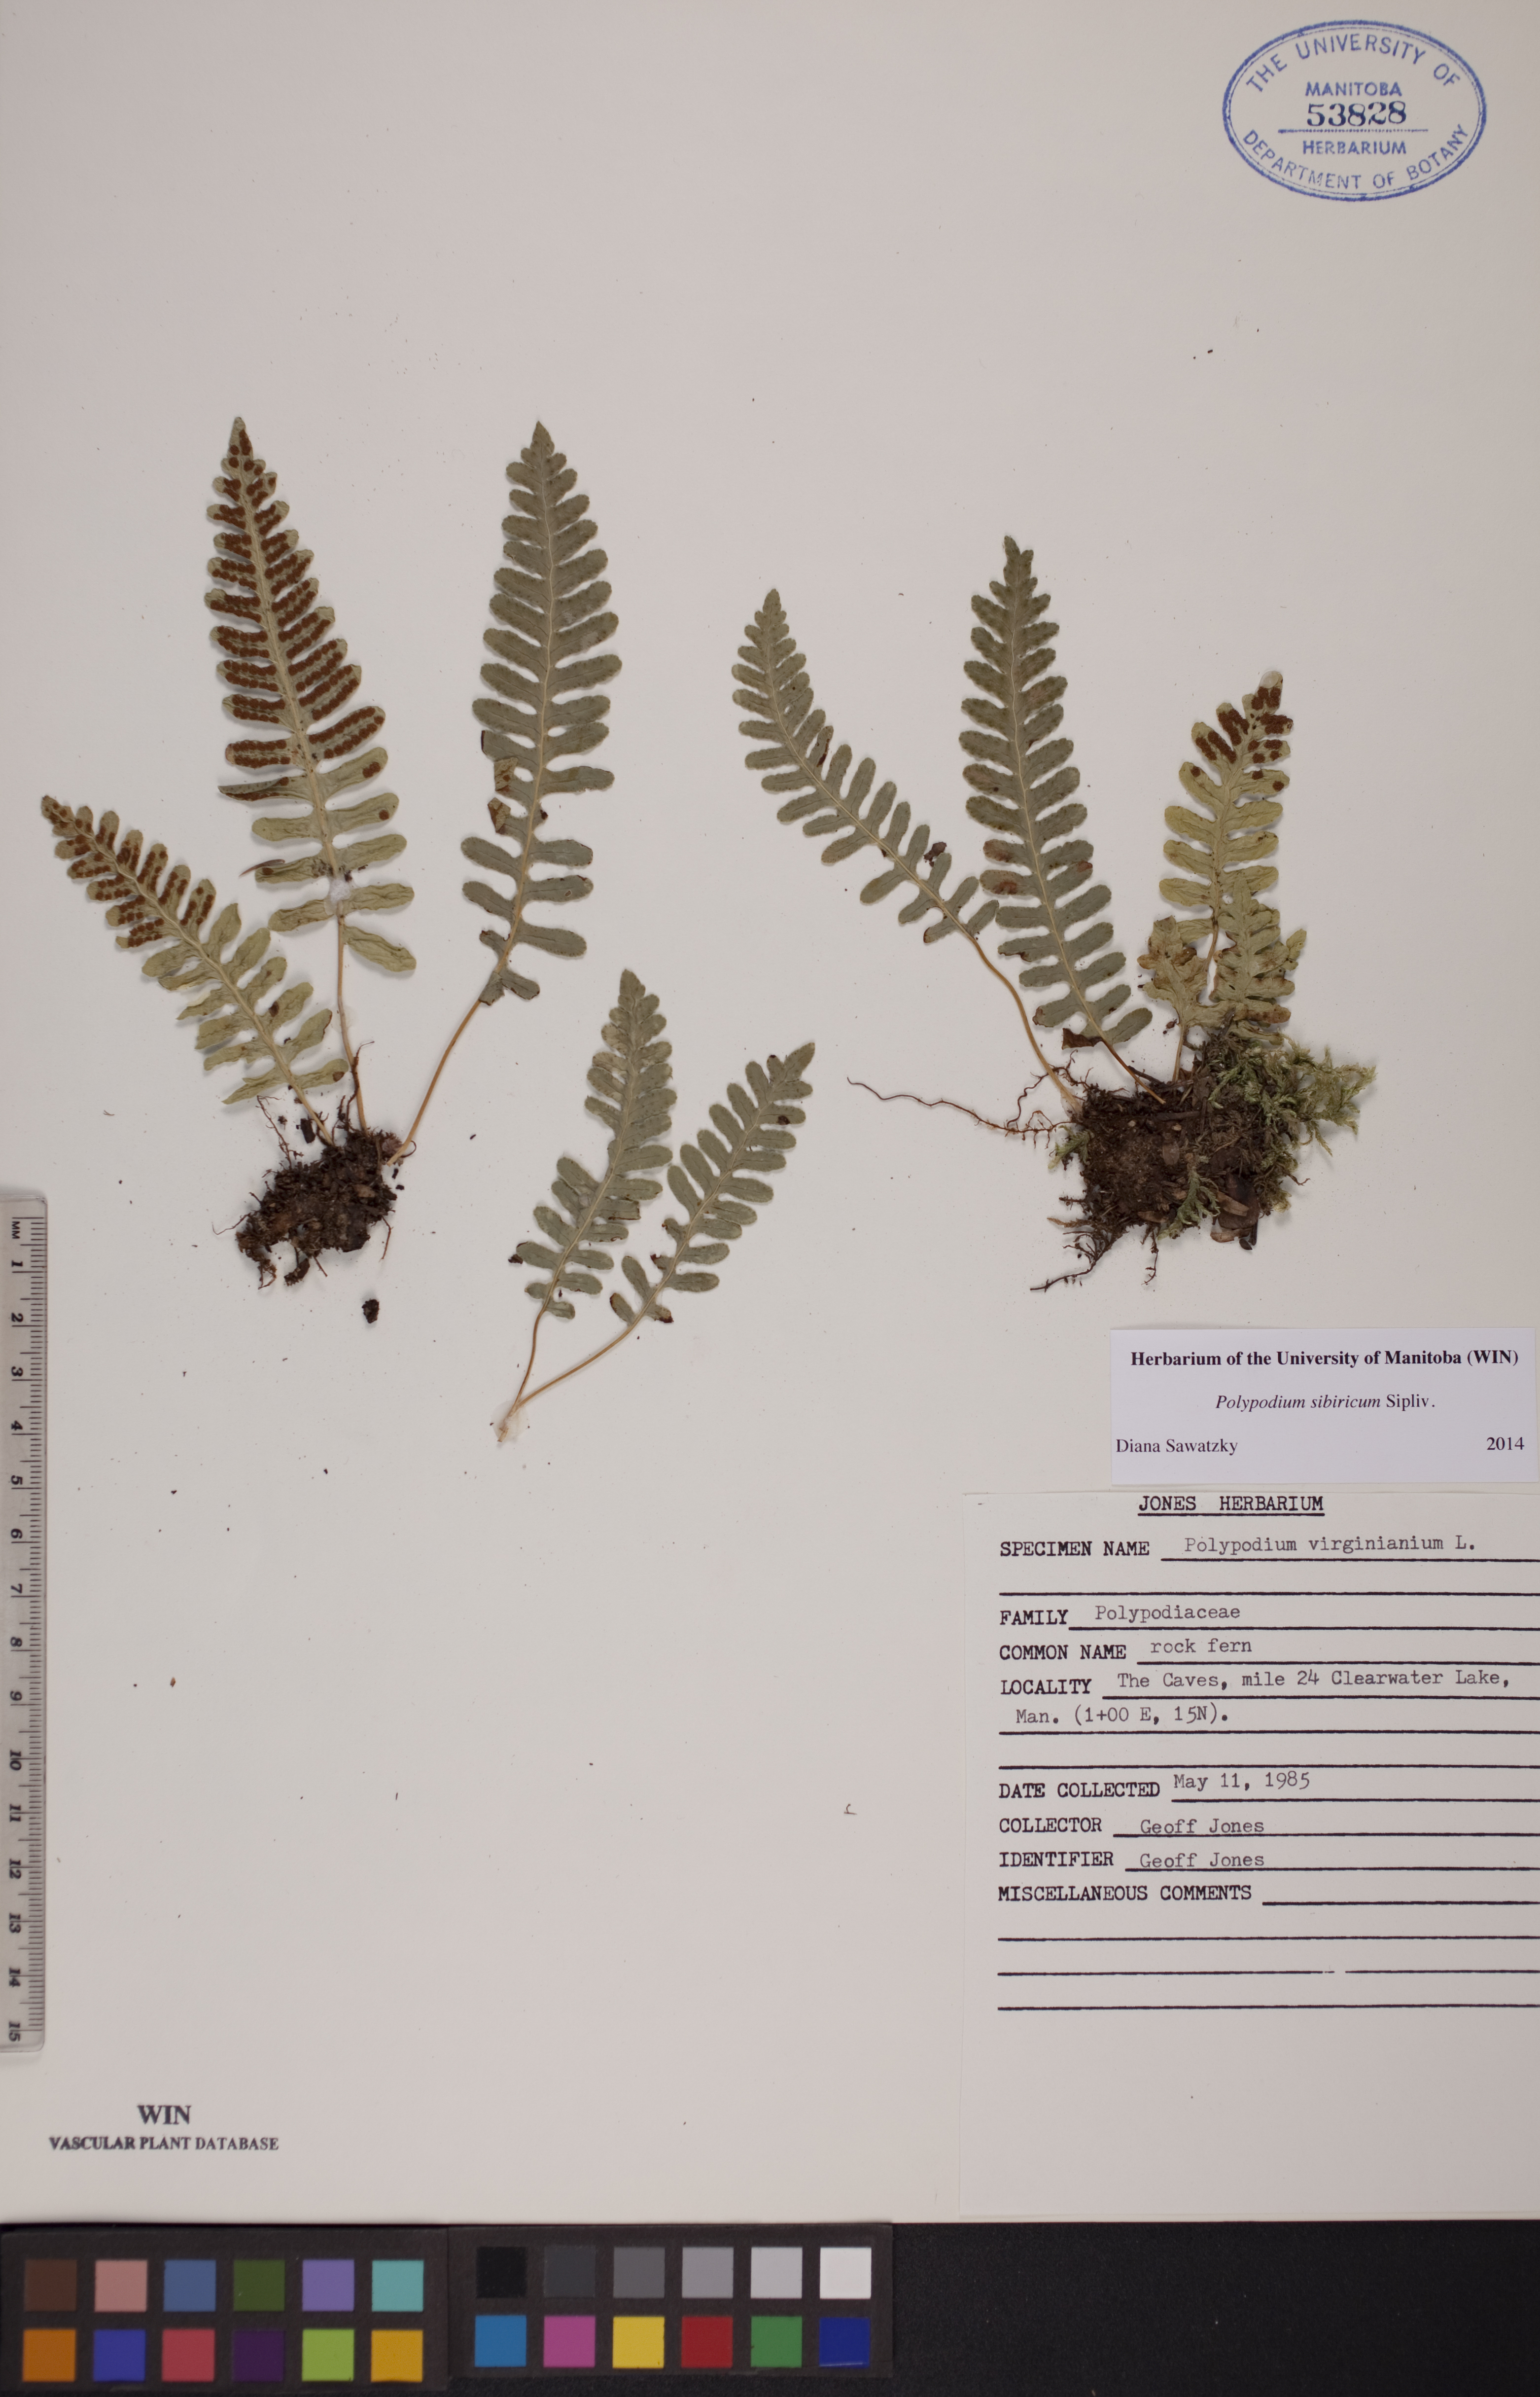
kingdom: Plantae
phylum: Tracheophyta
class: Polypodiopsida
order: Polypodiales
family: Polypodiaceae
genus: Polypodium
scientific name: Polypodium sibiricum
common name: Siberian polypody
